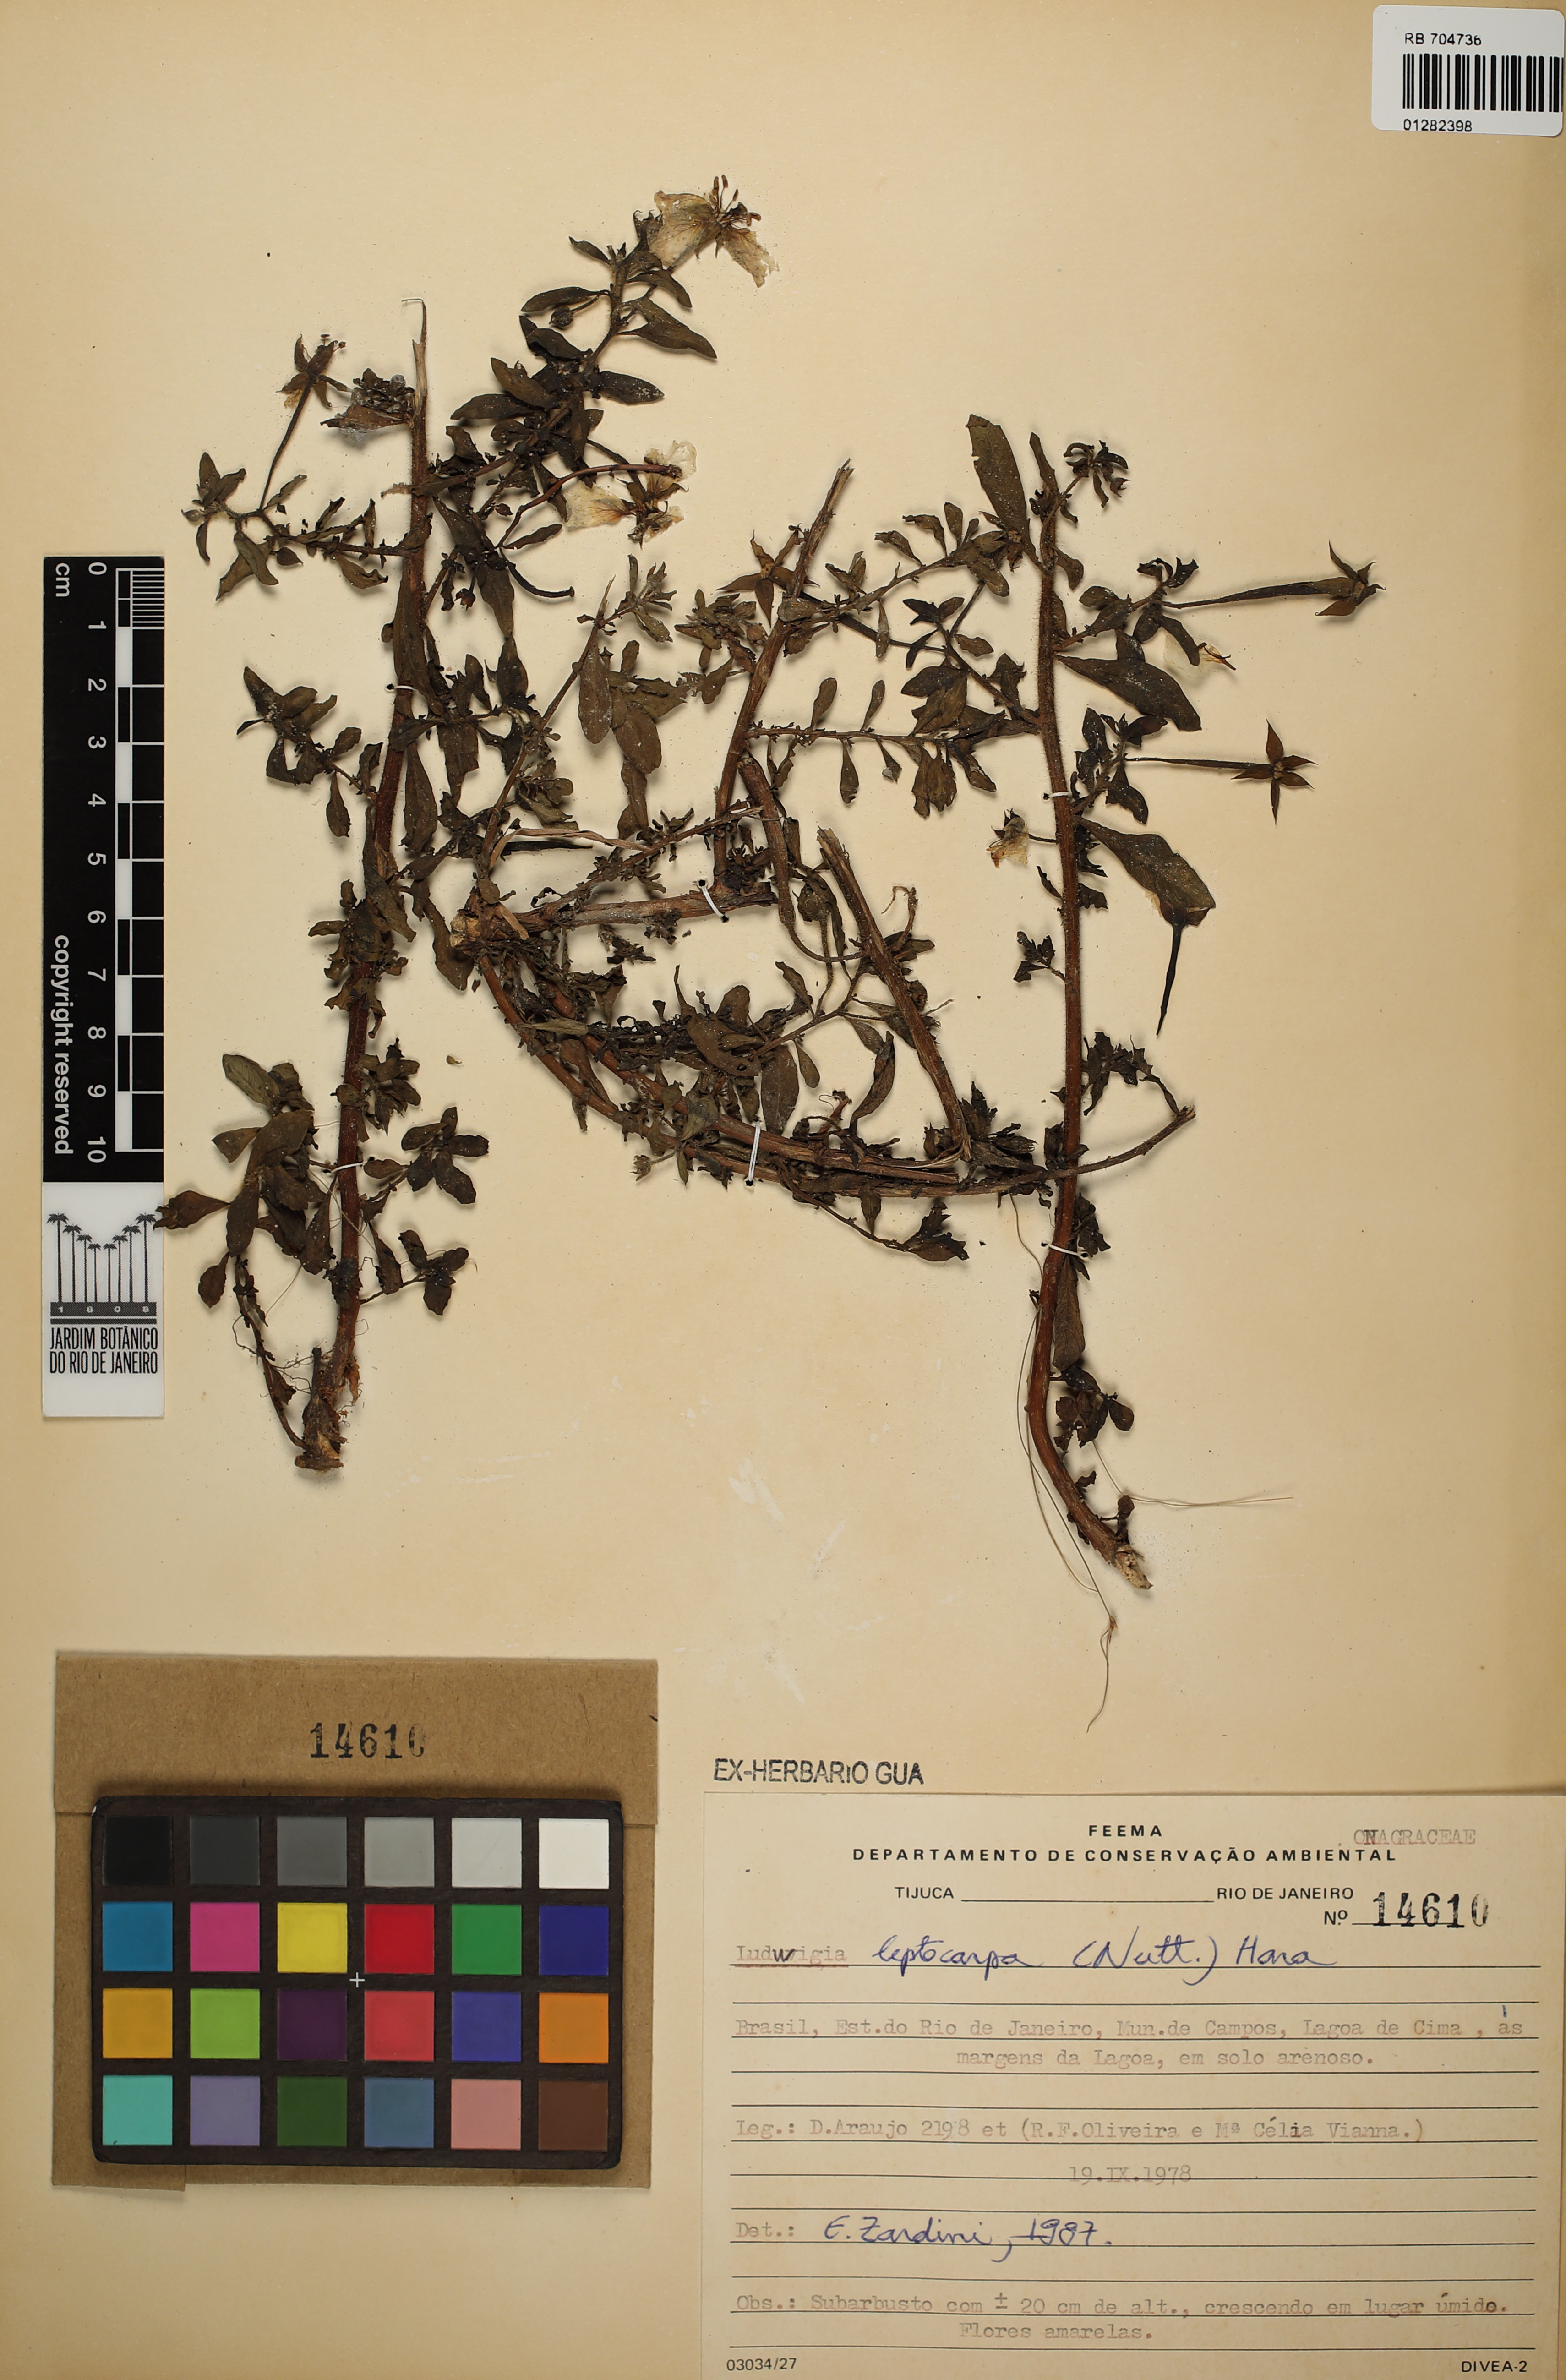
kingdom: Plantae
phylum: Tracheophyta
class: Magnoliopsida
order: Myrtales
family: Onagraceae
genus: Ludwigia
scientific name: Ludwigia leptocarpa
